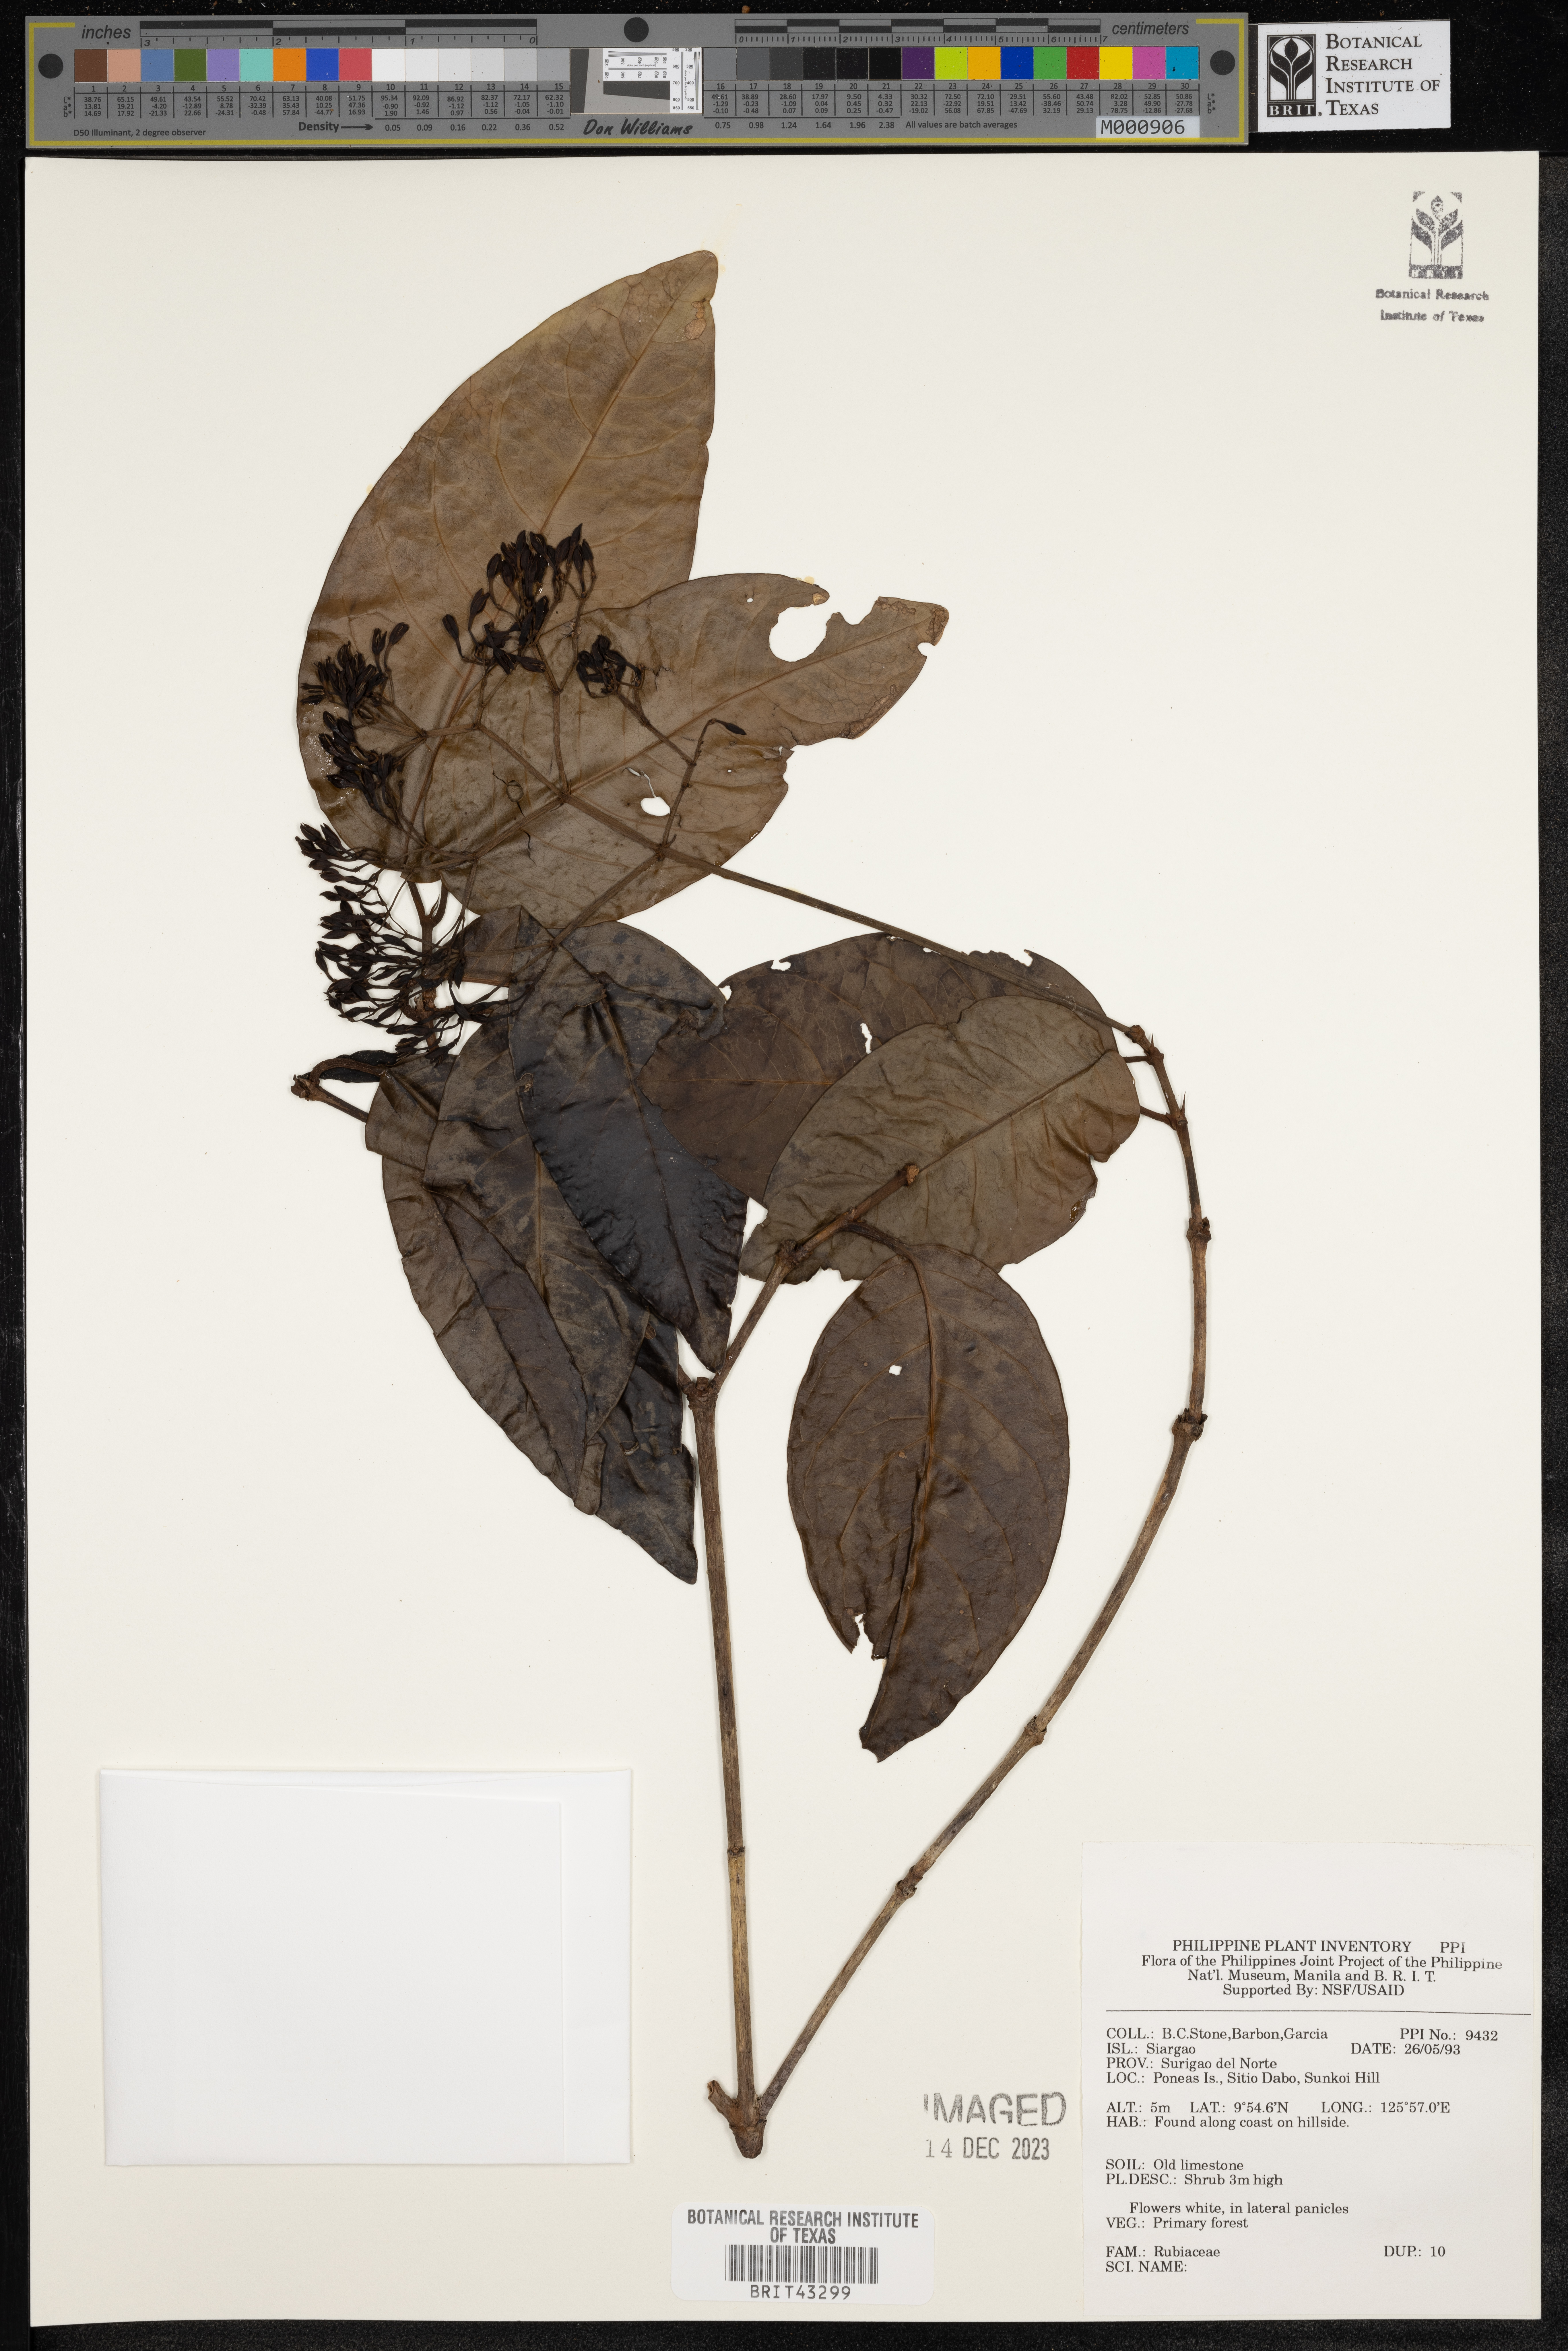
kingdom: Plantae
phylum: Tracheophyta
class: Magnoliopsida
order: Gentianales
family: Rubiaceae
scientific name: Rubiaceae
